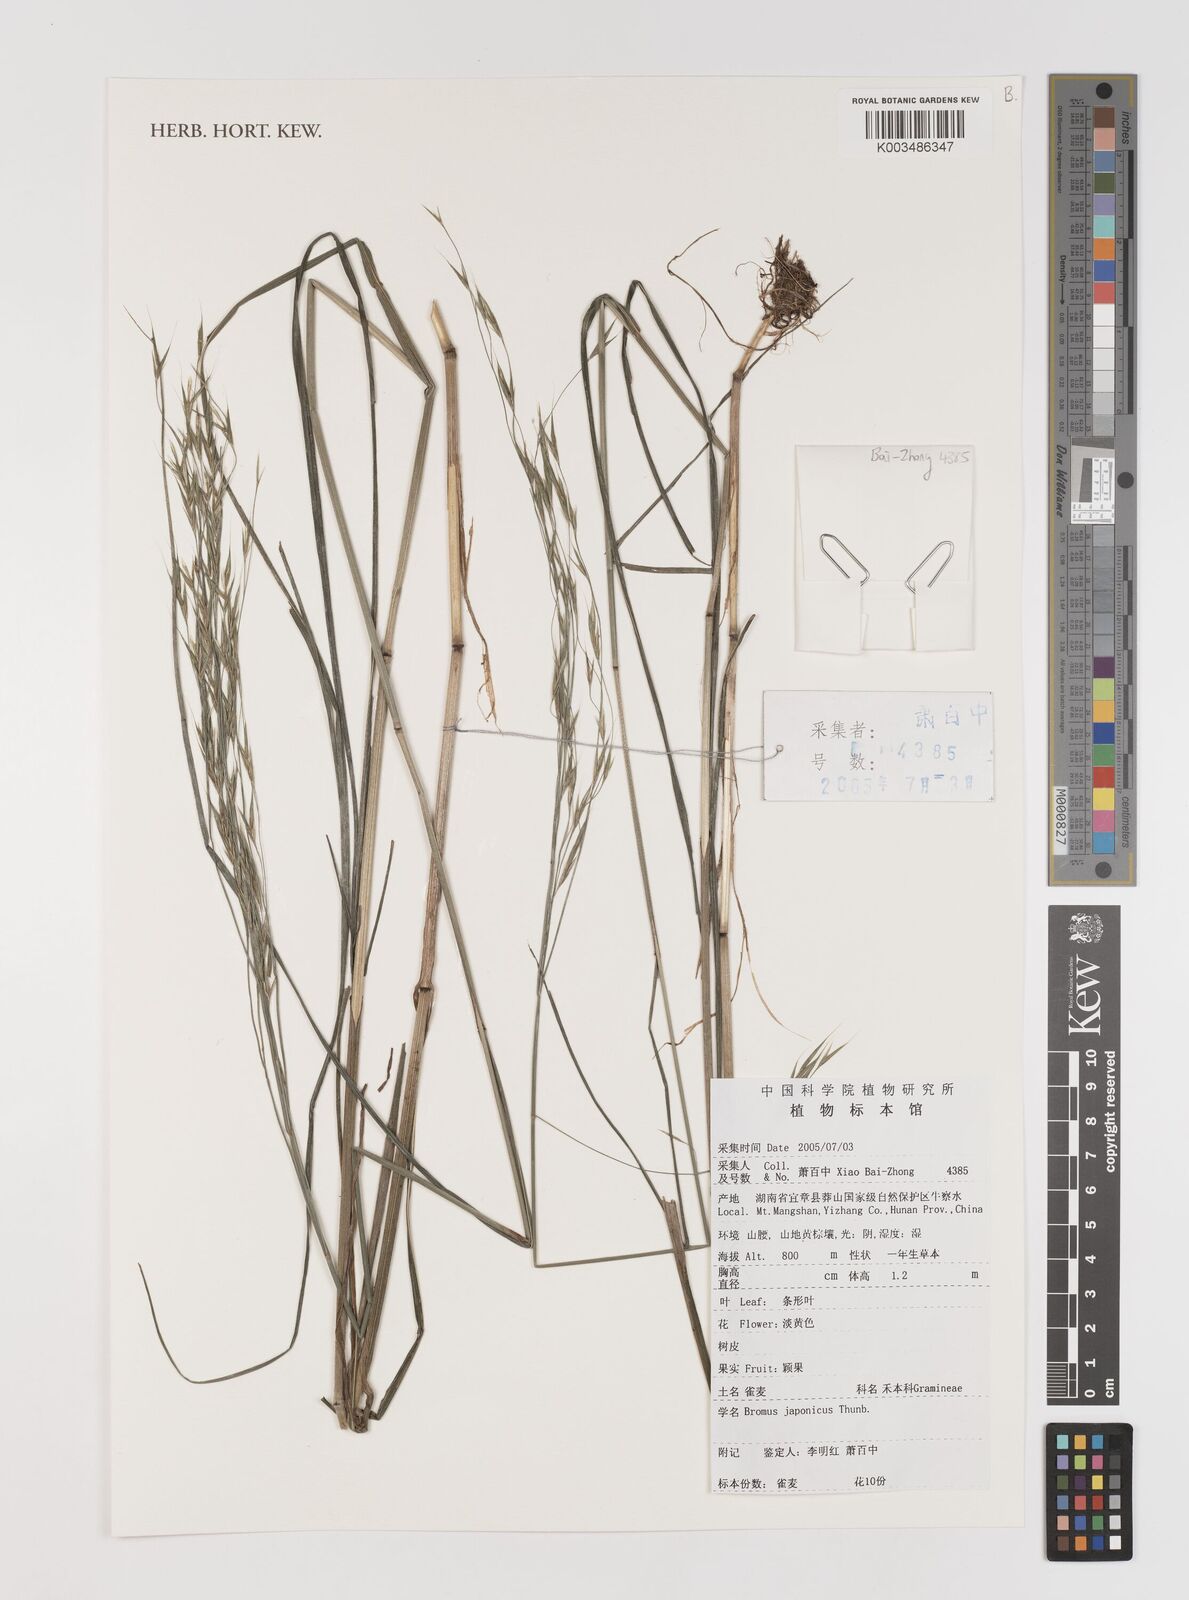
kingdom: Plantae
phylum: Tracheophyta
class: Liliopsida
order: Poales
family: Poaceae
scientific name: Poaceae
